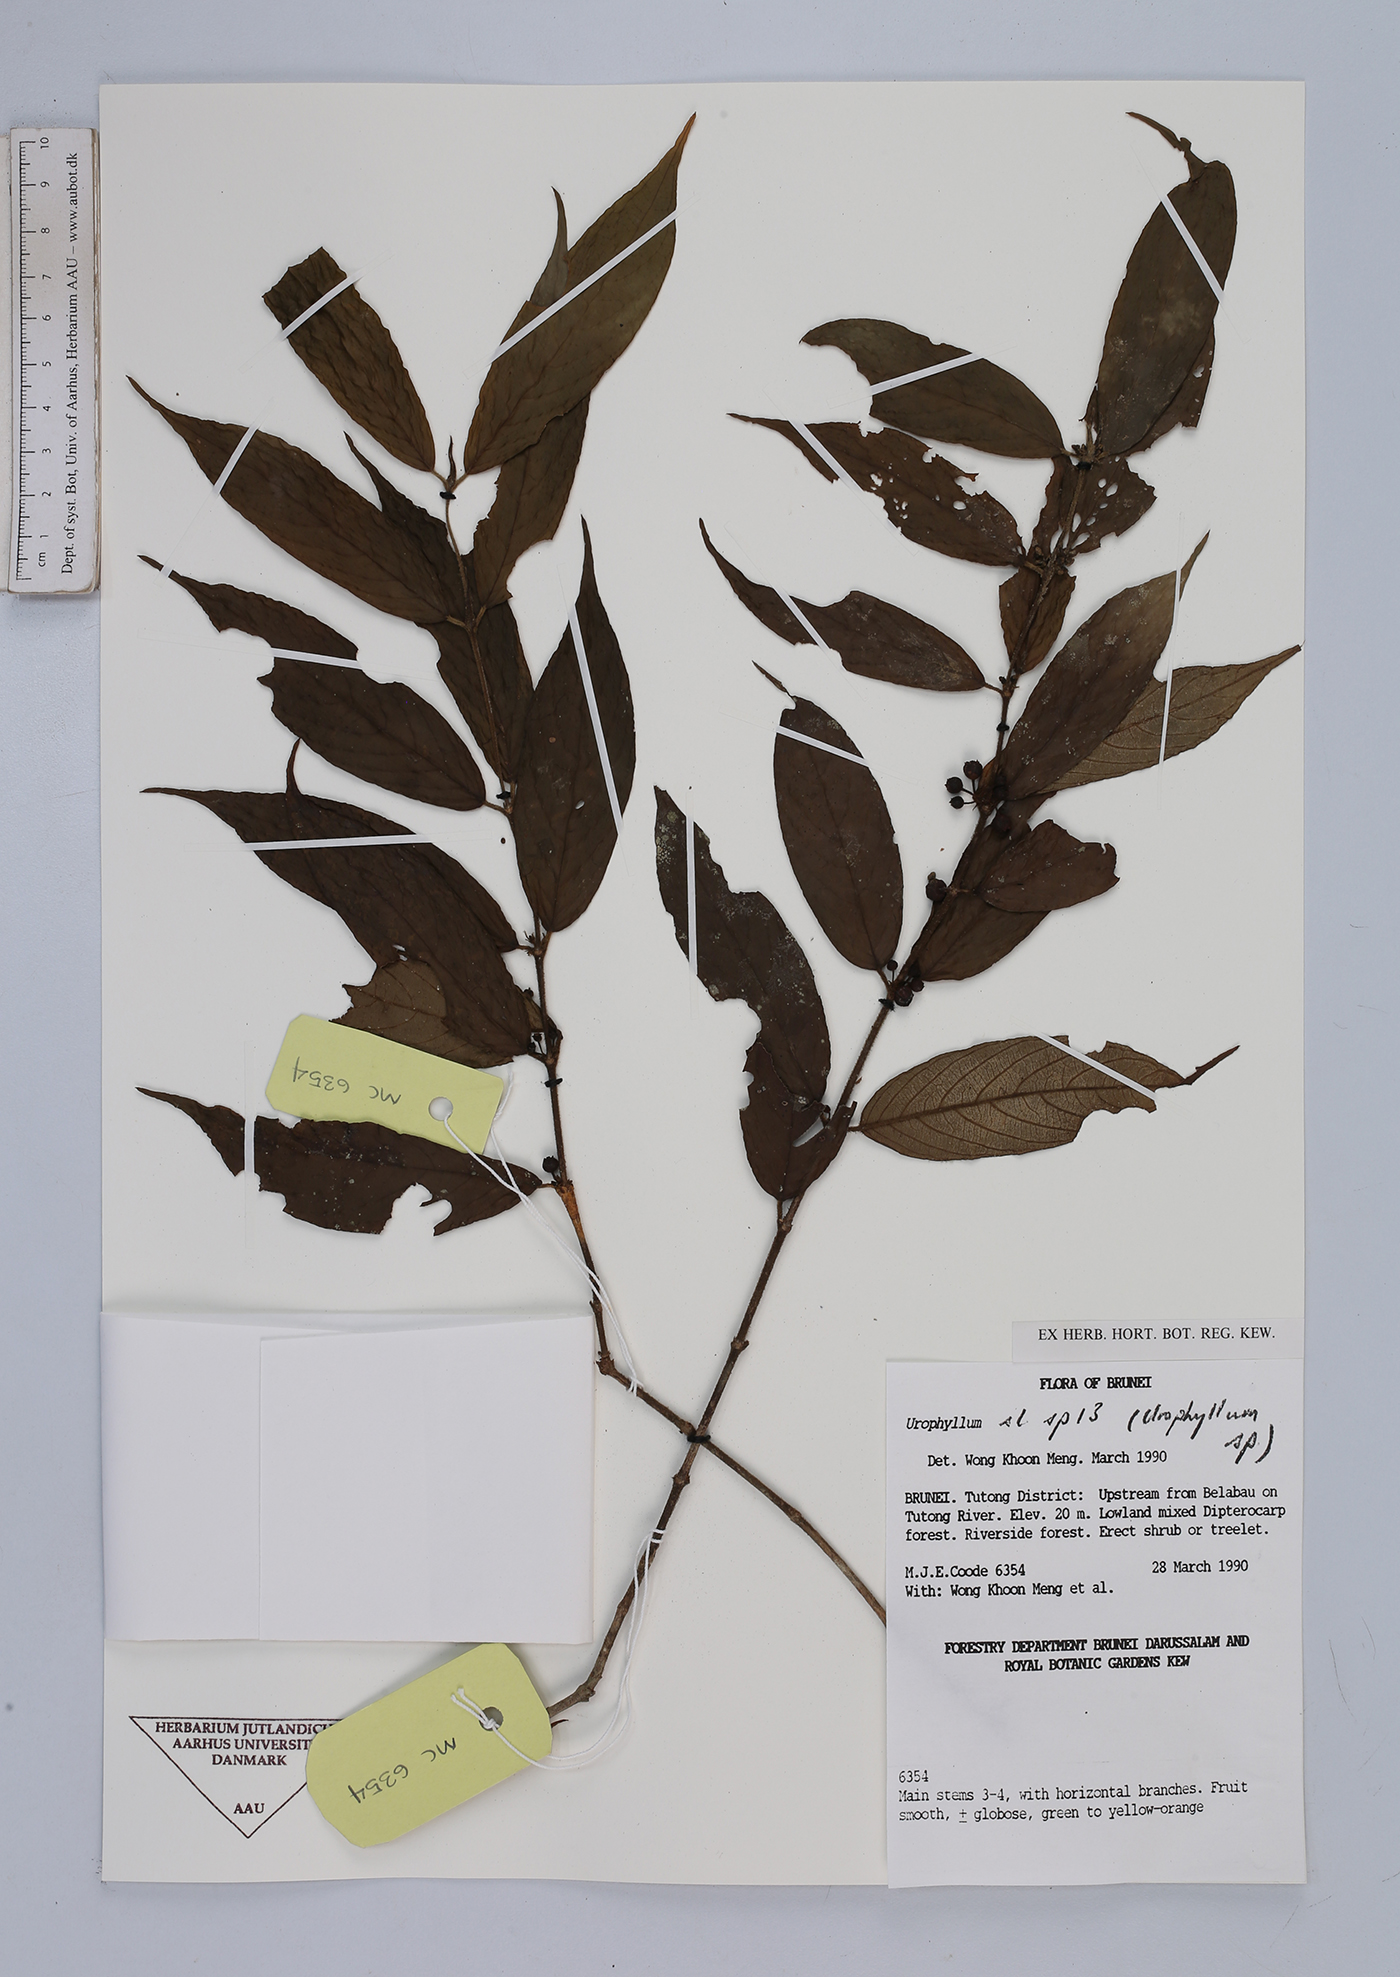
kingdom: Plantae
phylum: Tracheophyta
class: Magnoliopsida
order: Gentianales
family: Rubiaceae
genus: Urophyllum
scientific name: Urophyllum
